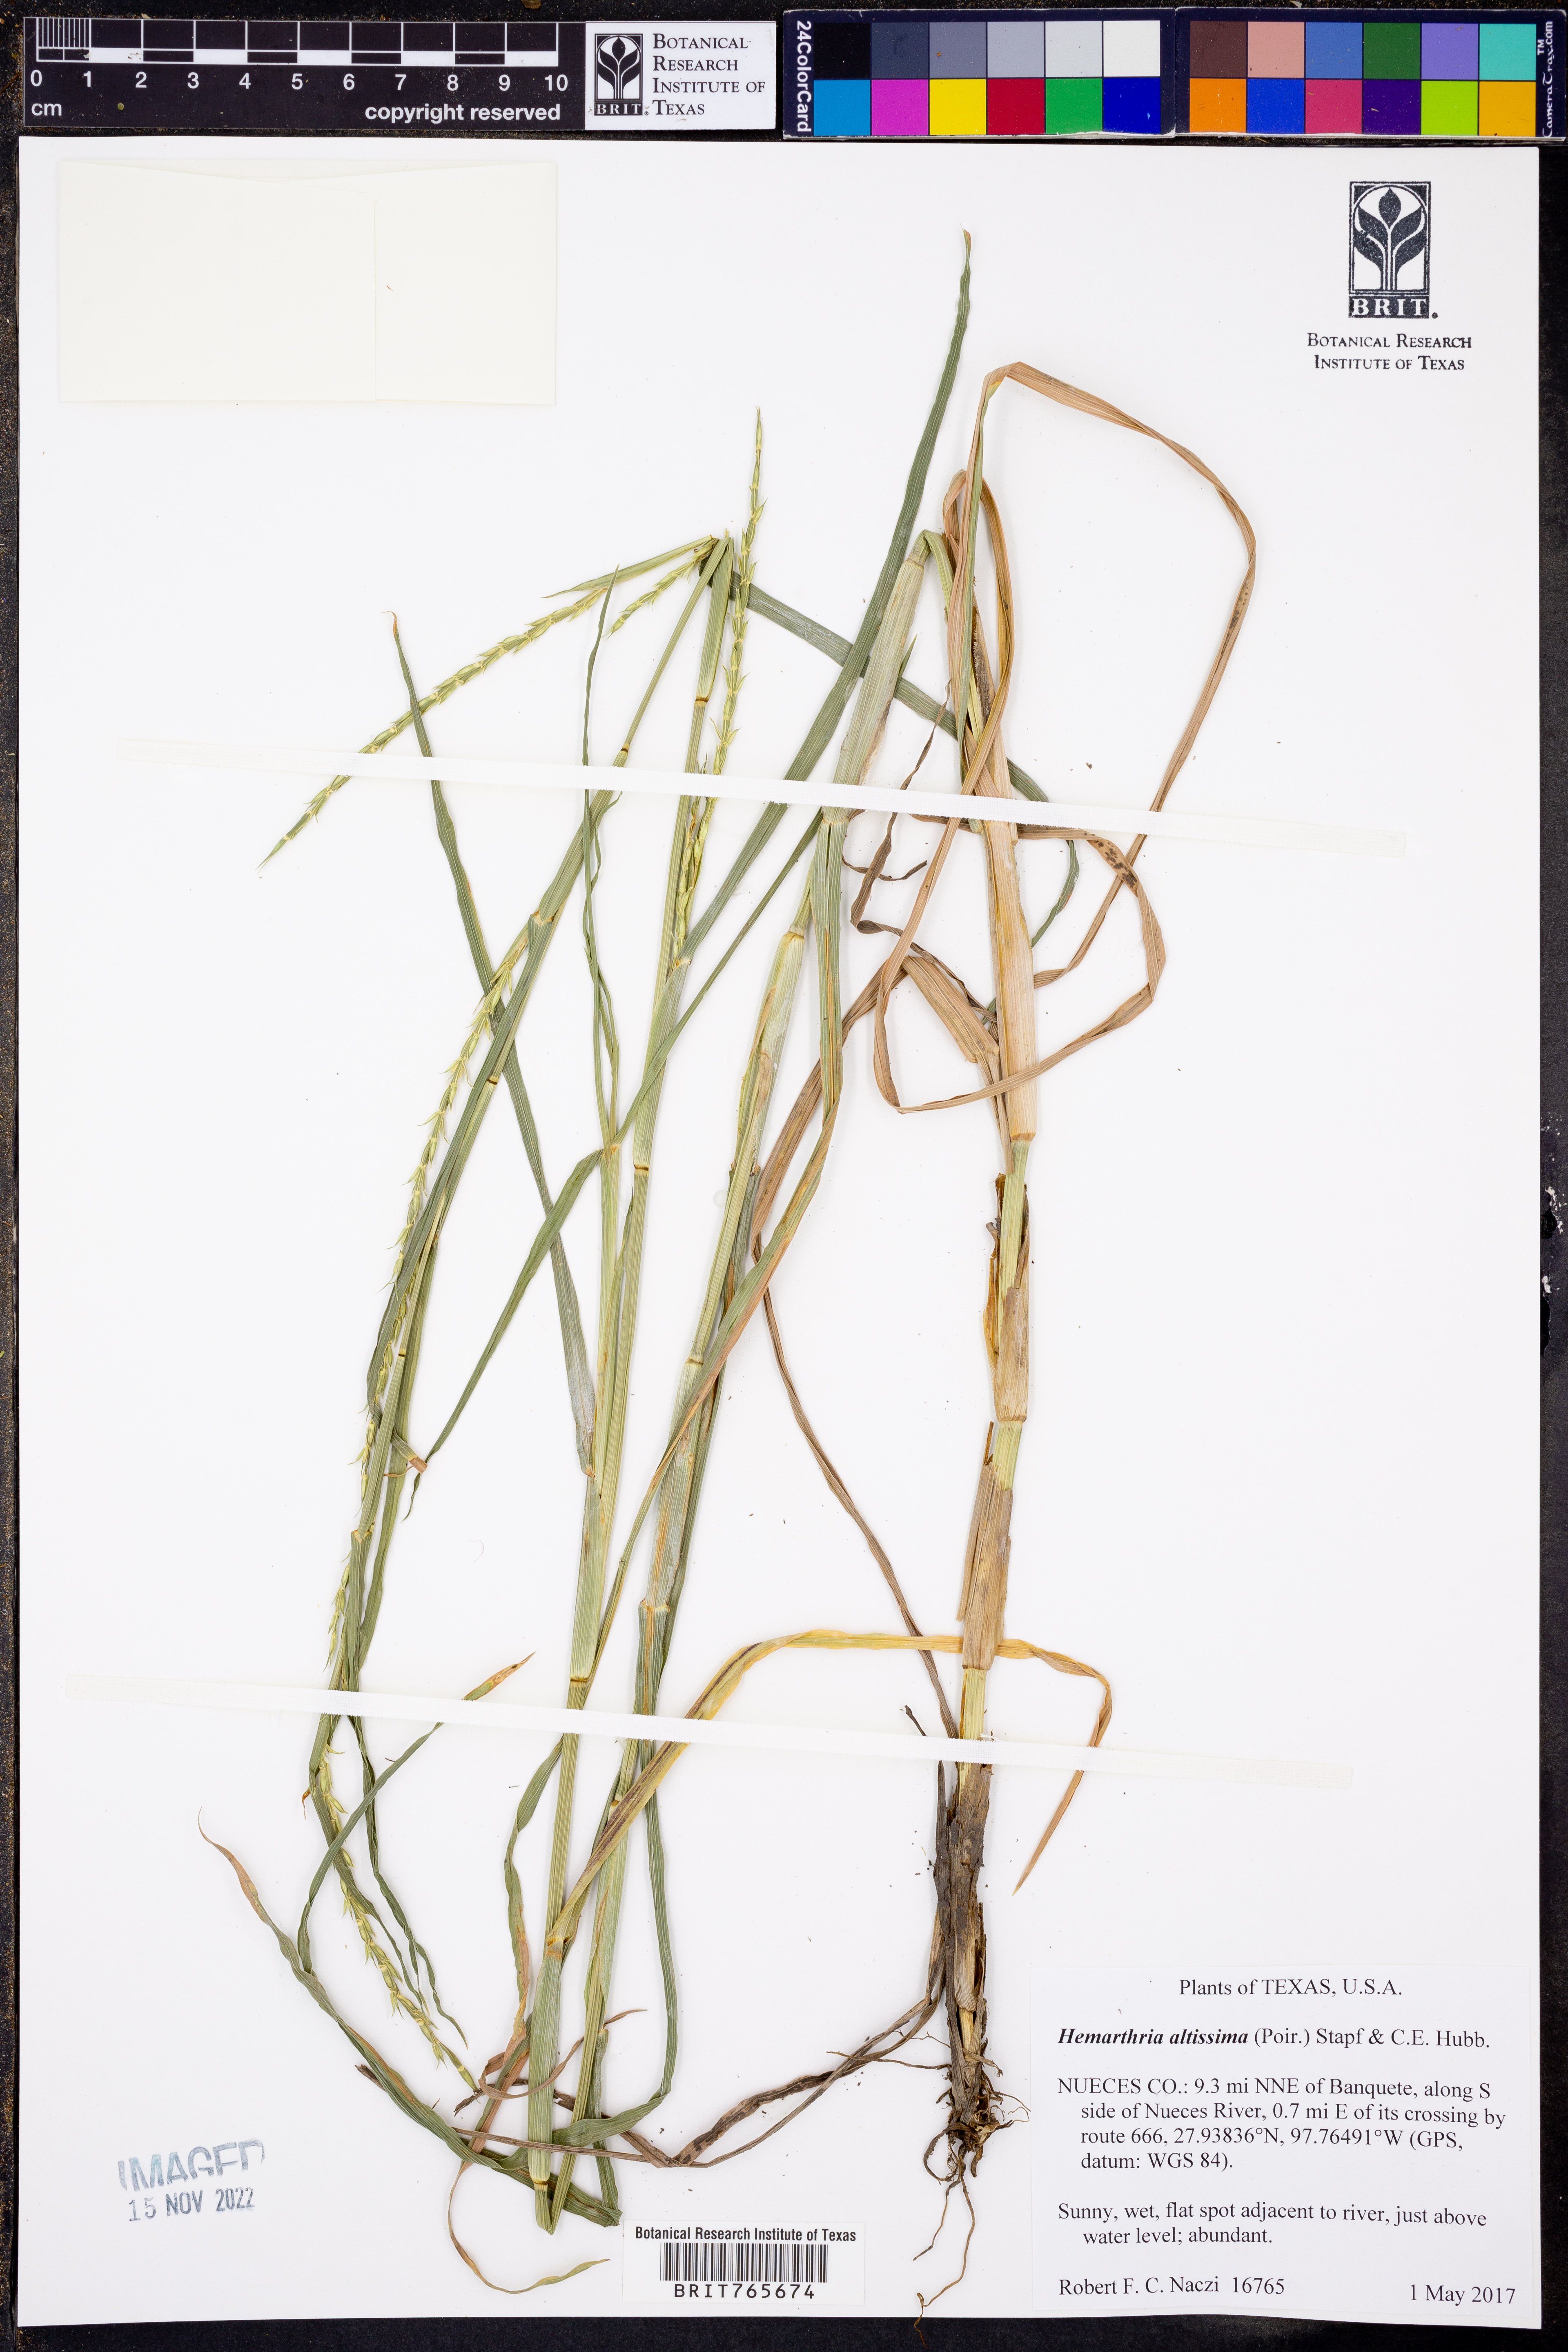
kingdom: Plantae
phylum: Tracheophyta
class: Liliopsida
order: Poales
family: Poaceae
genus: Hemarthria
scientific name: Hemarthria altissima
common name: African jointgrass
